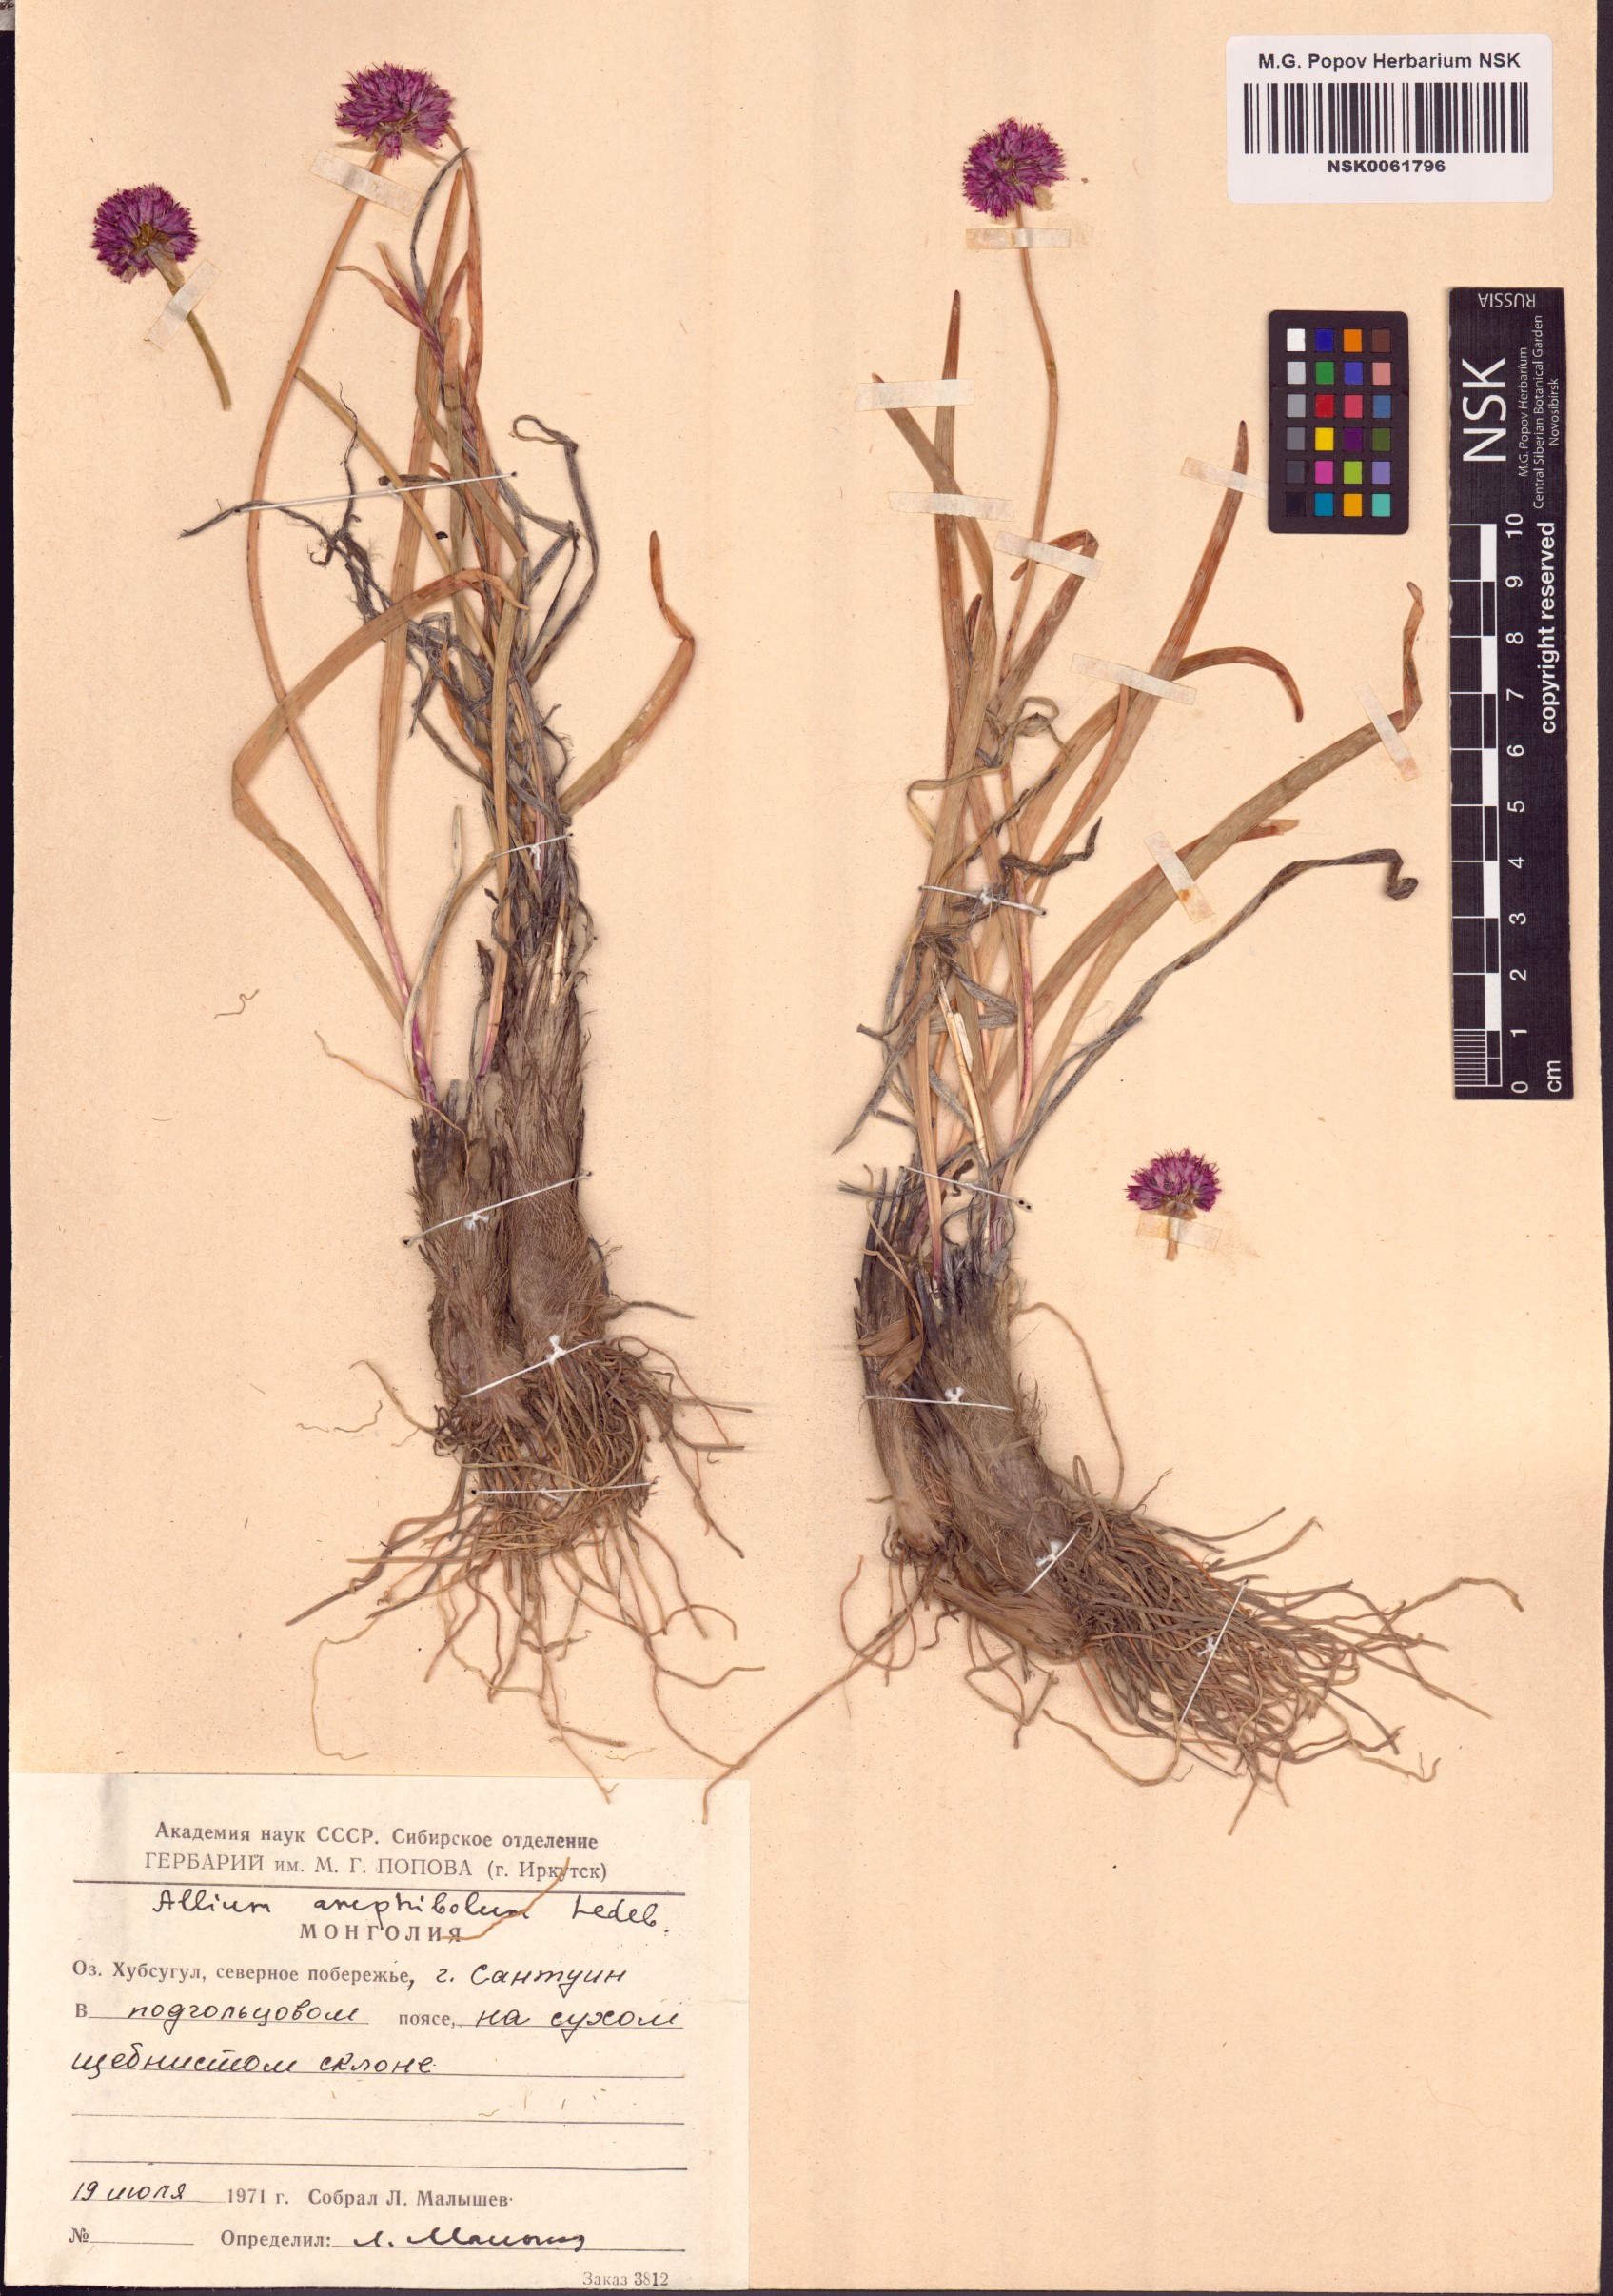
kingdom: Plantae
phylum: Tracheophyta
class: Liliopsida
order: Asparagales
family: Amaryllidaceae
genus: Allium
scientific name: Allium amphibolum
